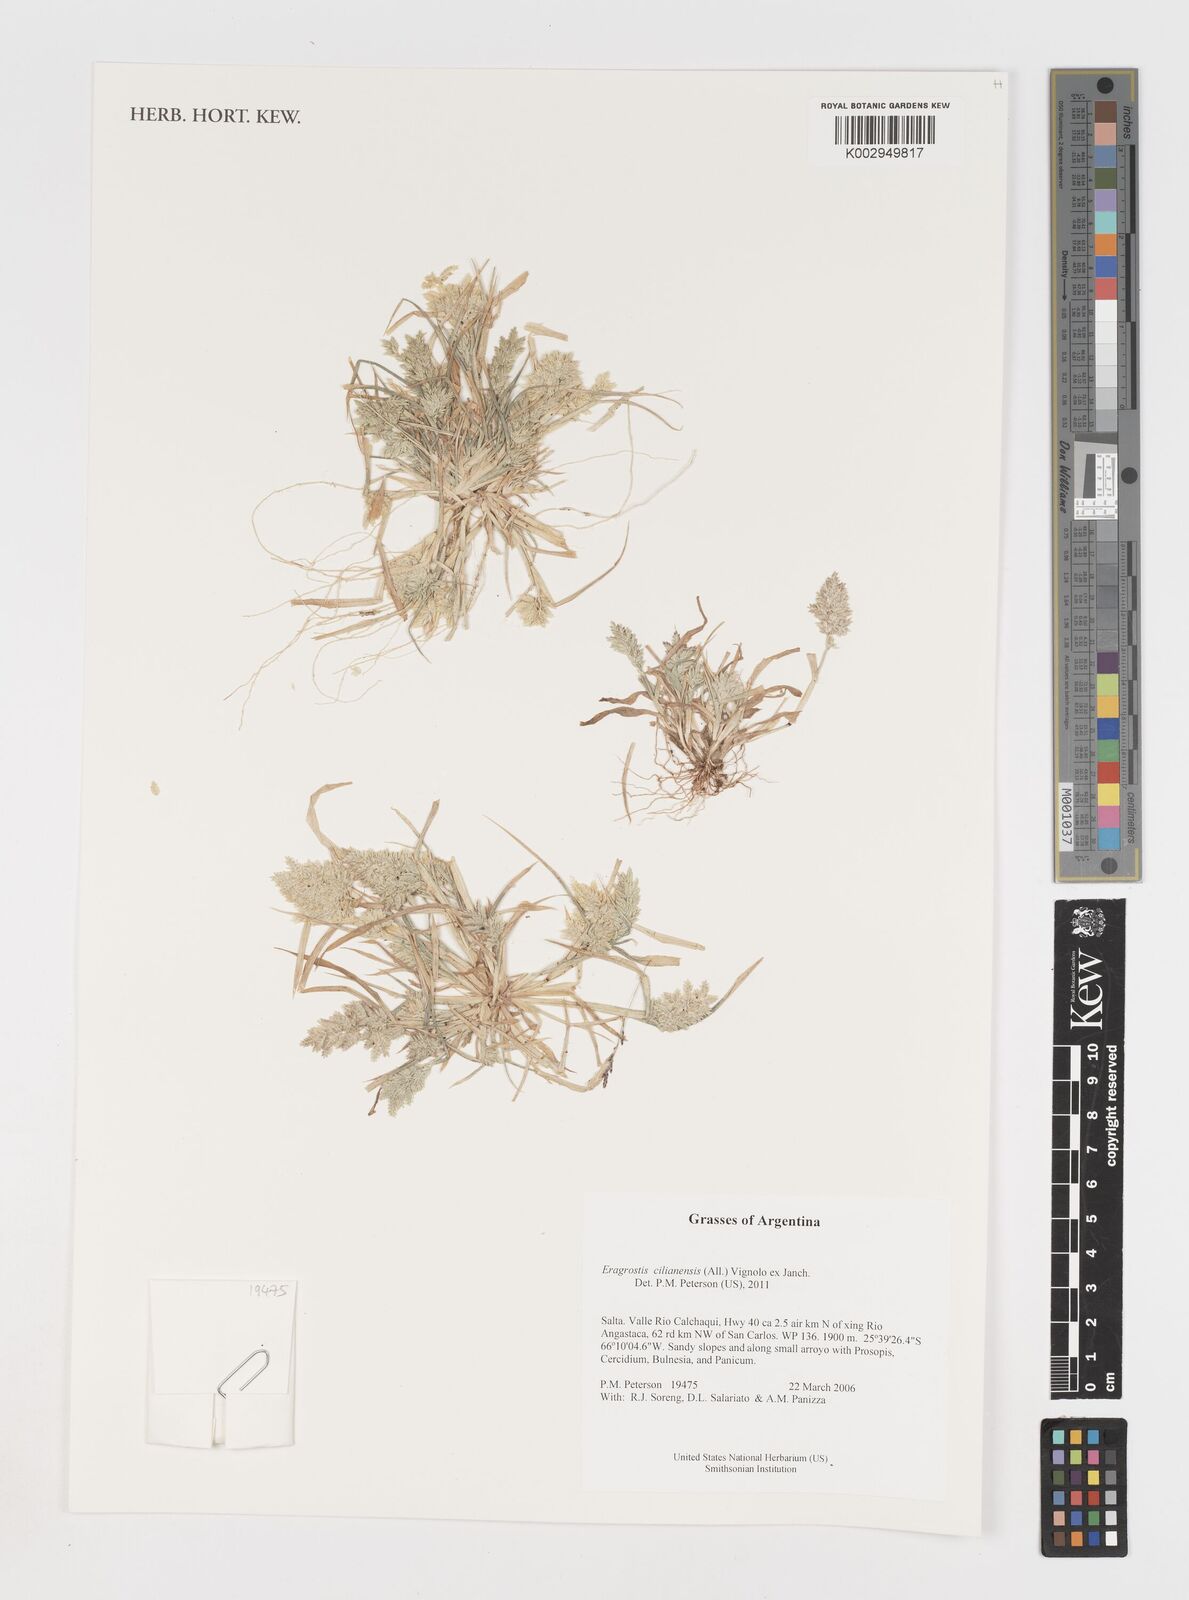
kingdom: Plantae
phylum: Tracheophyta
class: Liliopsida
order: Poales
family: Poaceae
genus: Eragrostis
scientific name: Eragrostis cilianensis
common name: Stinkgrass
